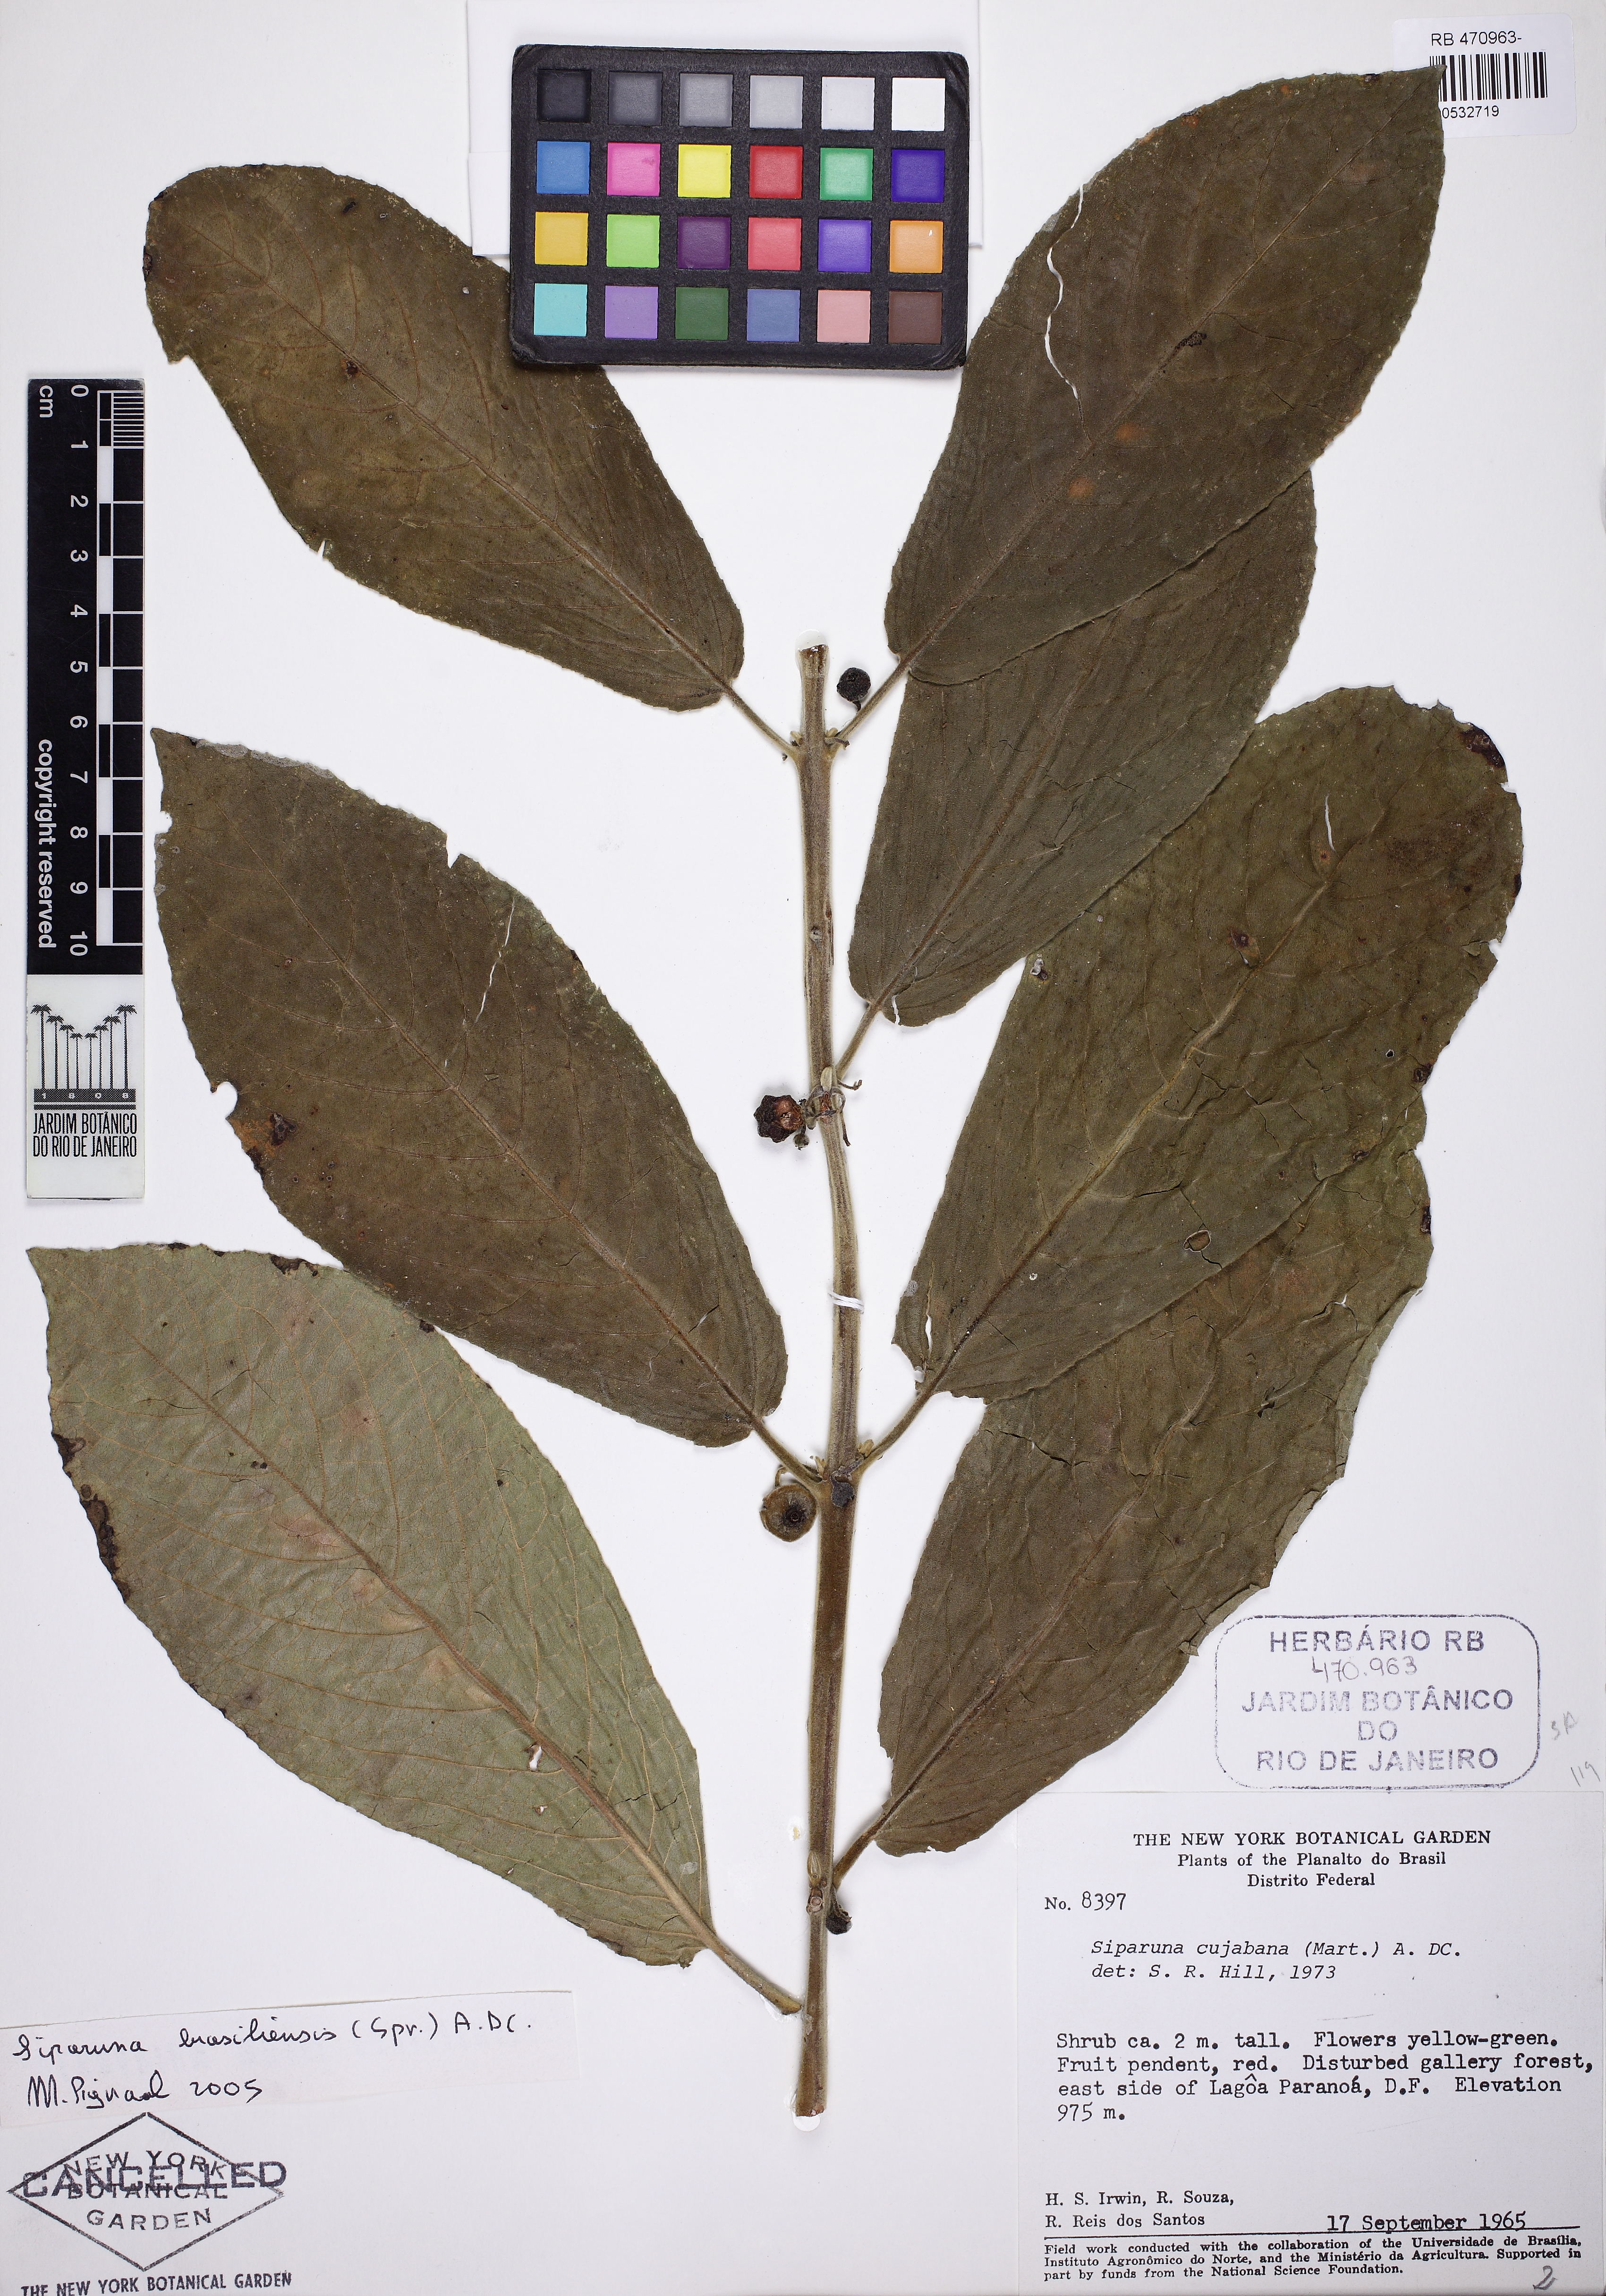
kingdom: Plantae
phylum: Tracheophyta
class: Magnoliopsida
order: Laurales
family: Siparunaceae
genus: Siparuna
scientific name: Siparuna brasiliensis
